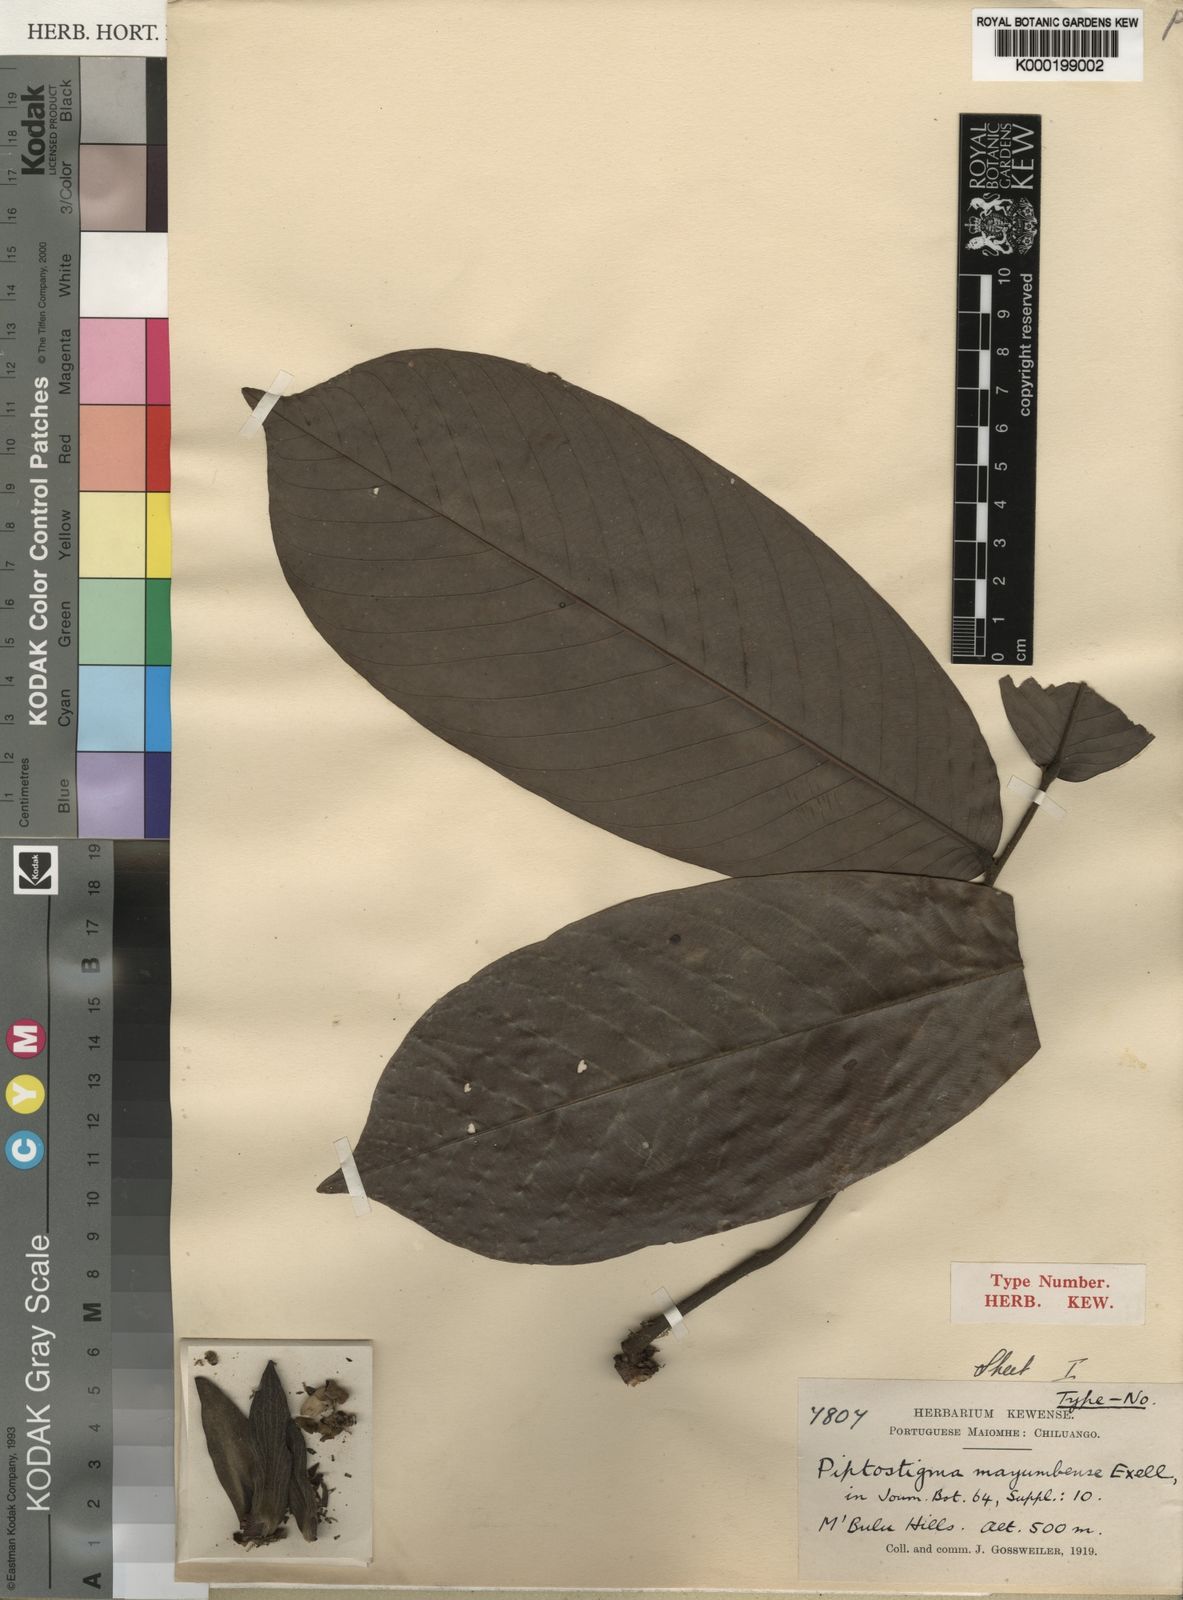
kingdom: Plantae
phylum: Tracheophyta
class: Magnoliopsida
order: Magnoliales
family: Annonaceae
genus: Piptostigma
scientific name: Piptostigma mayumbense
